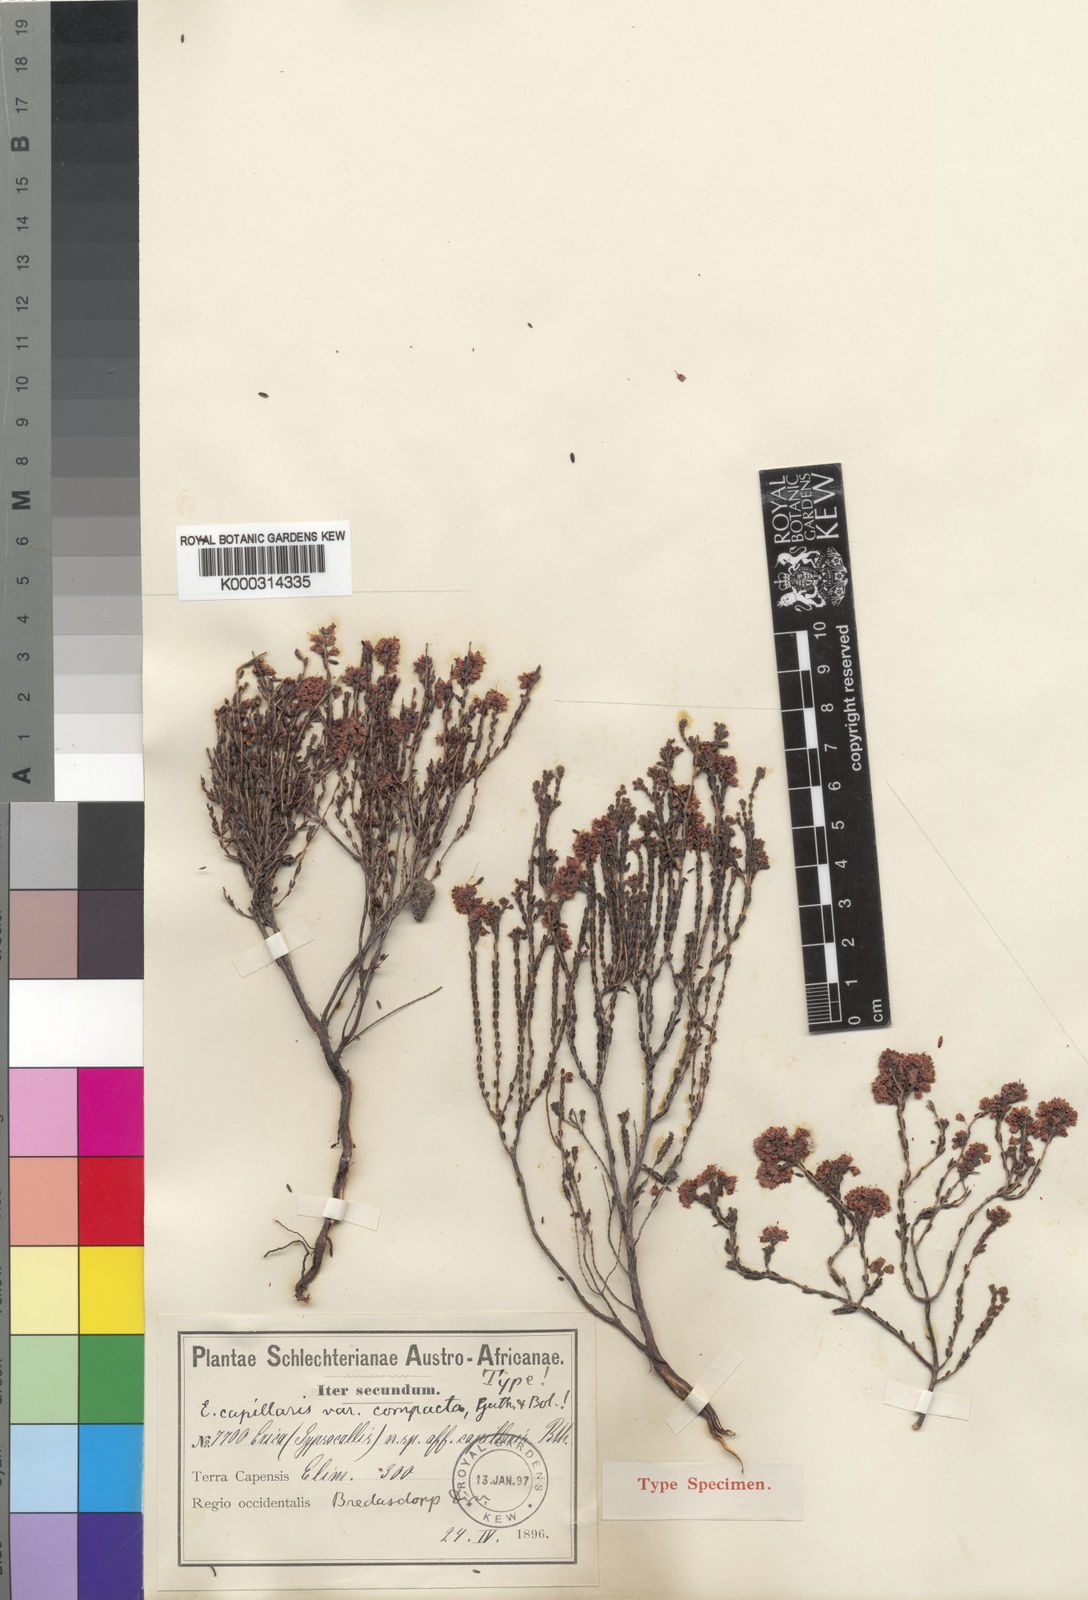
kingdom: Plantae
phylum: Tracheophyta
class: Magnoliopsida
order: Ericales
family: Ericaceae
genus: Erica
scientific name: Erica capillaris
